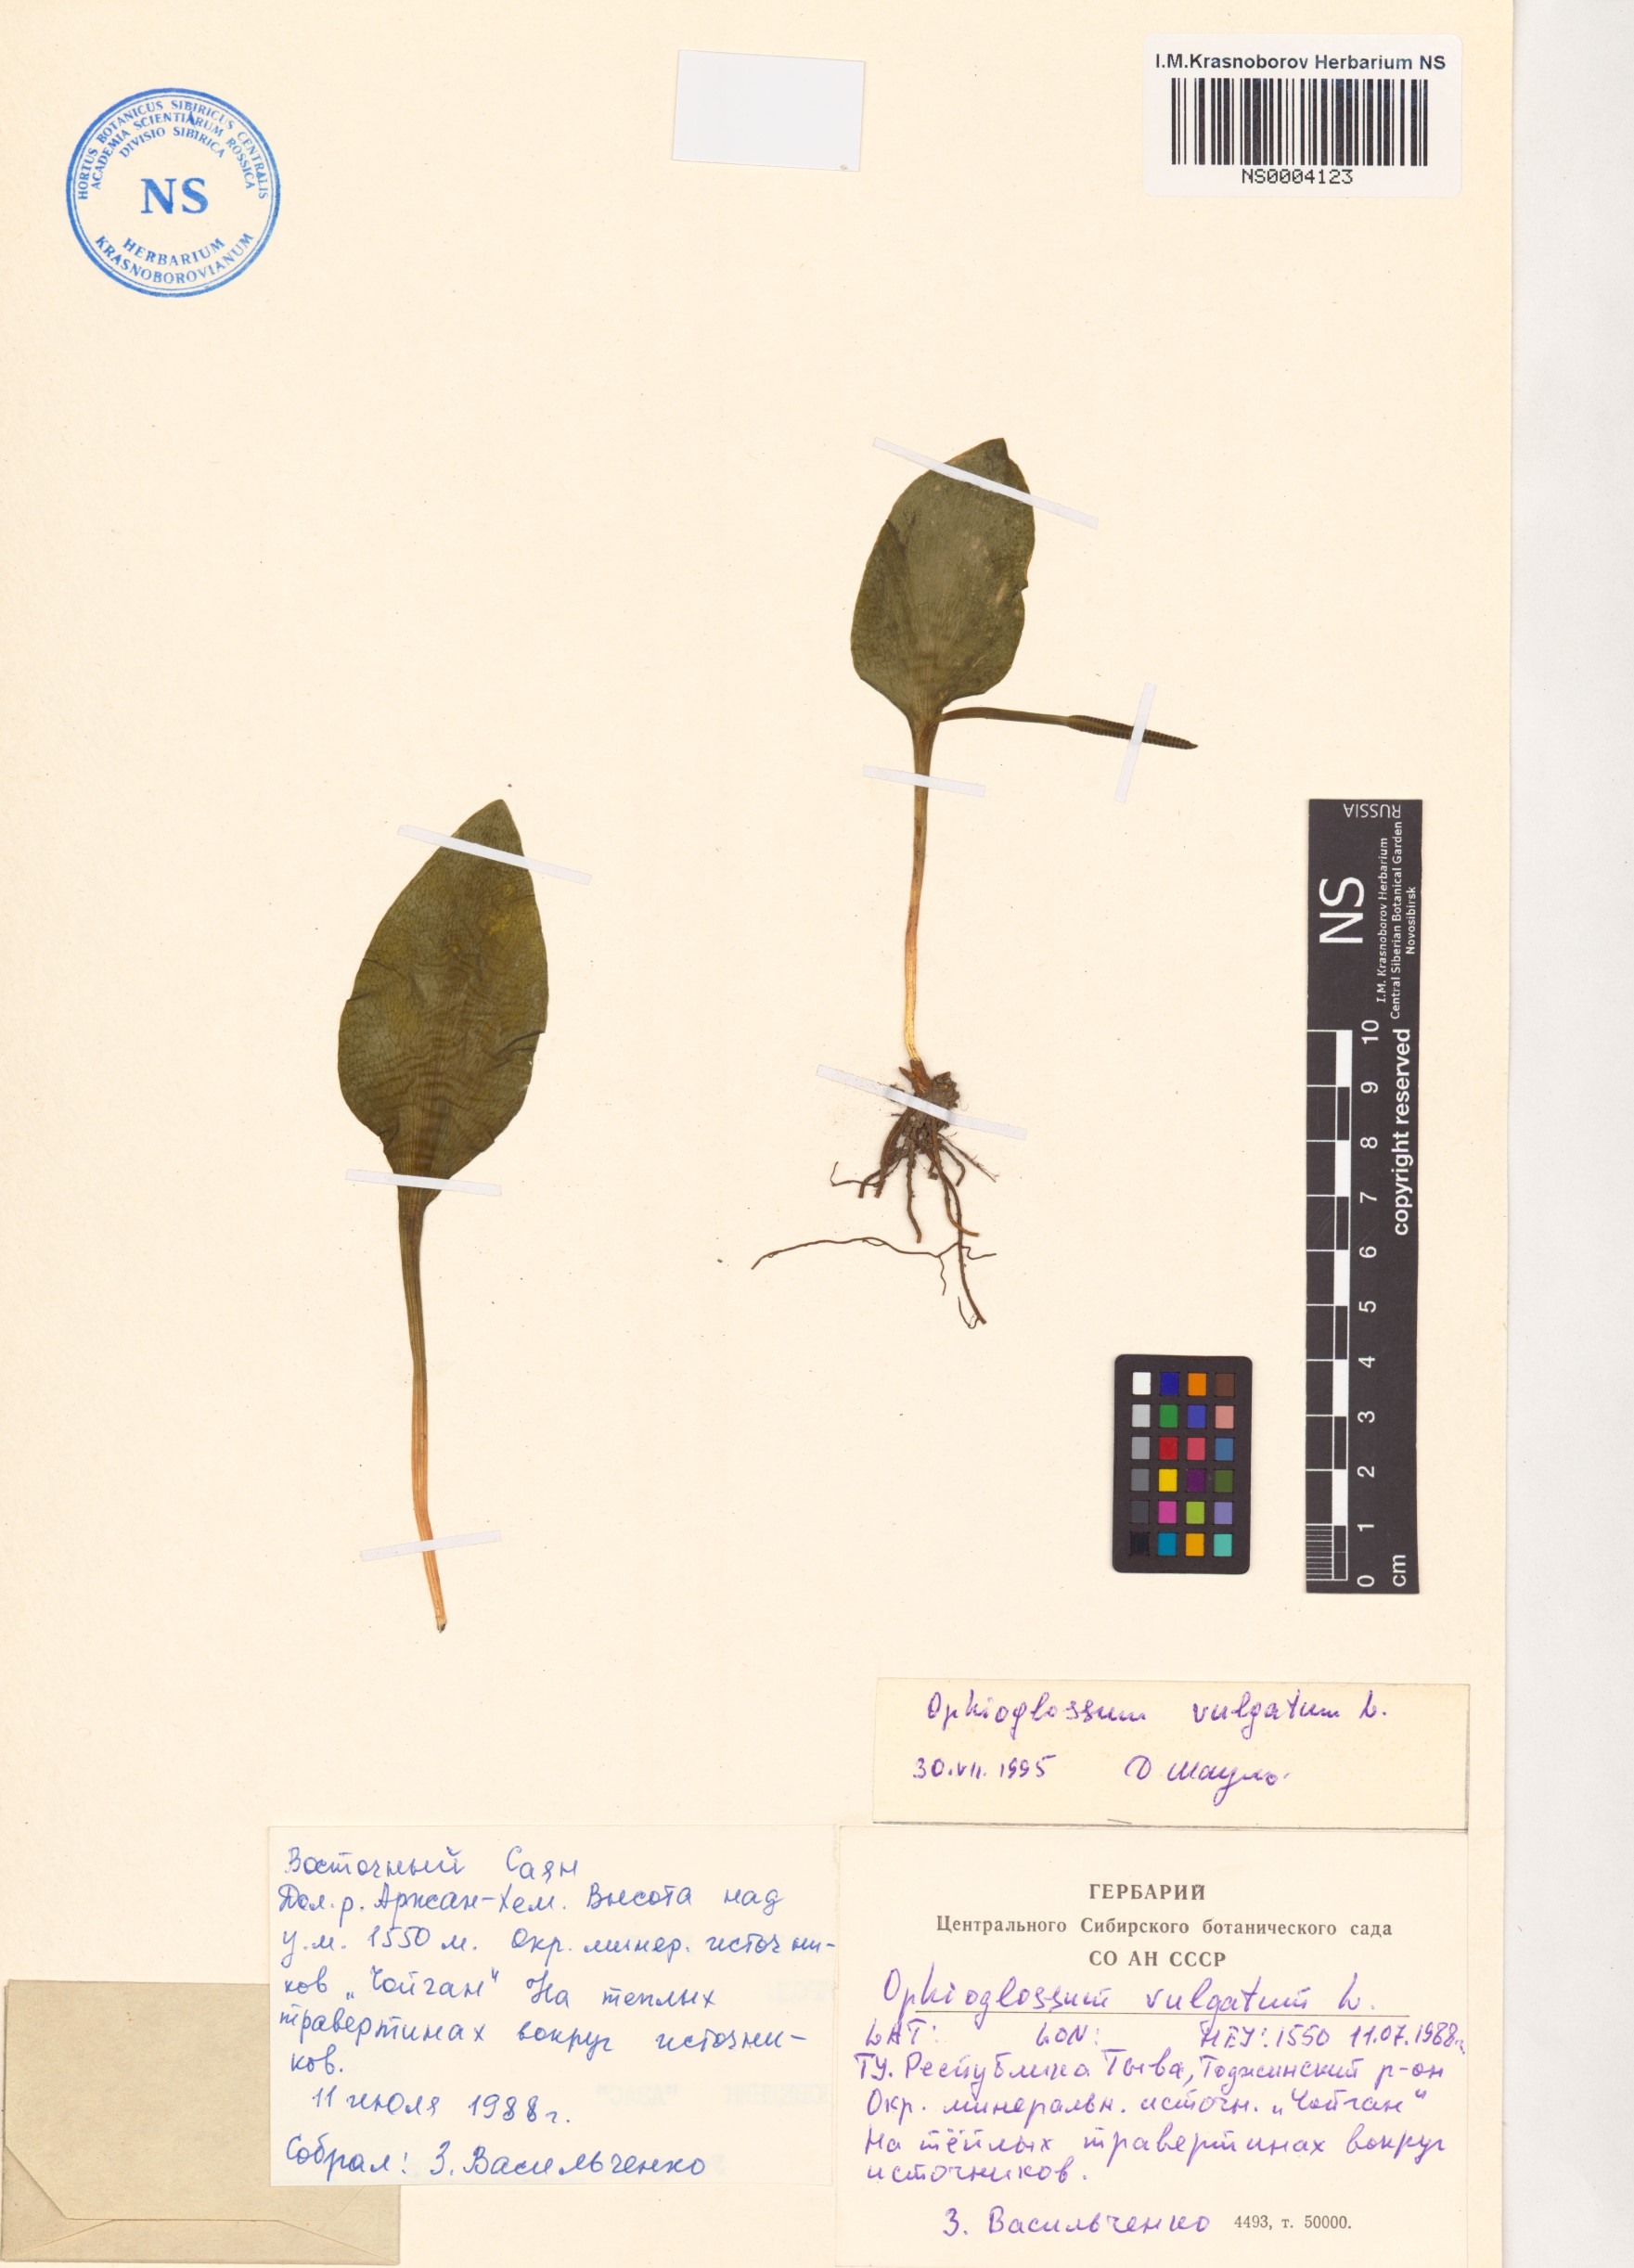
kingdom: Plantae
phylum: Tracheophyta
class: Polypodiopsida
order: Ophioglossales
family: Ophioglossaceae
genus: Ophioglossum
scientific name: Ophioglossum vulgatum
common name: Adder's-tongue
